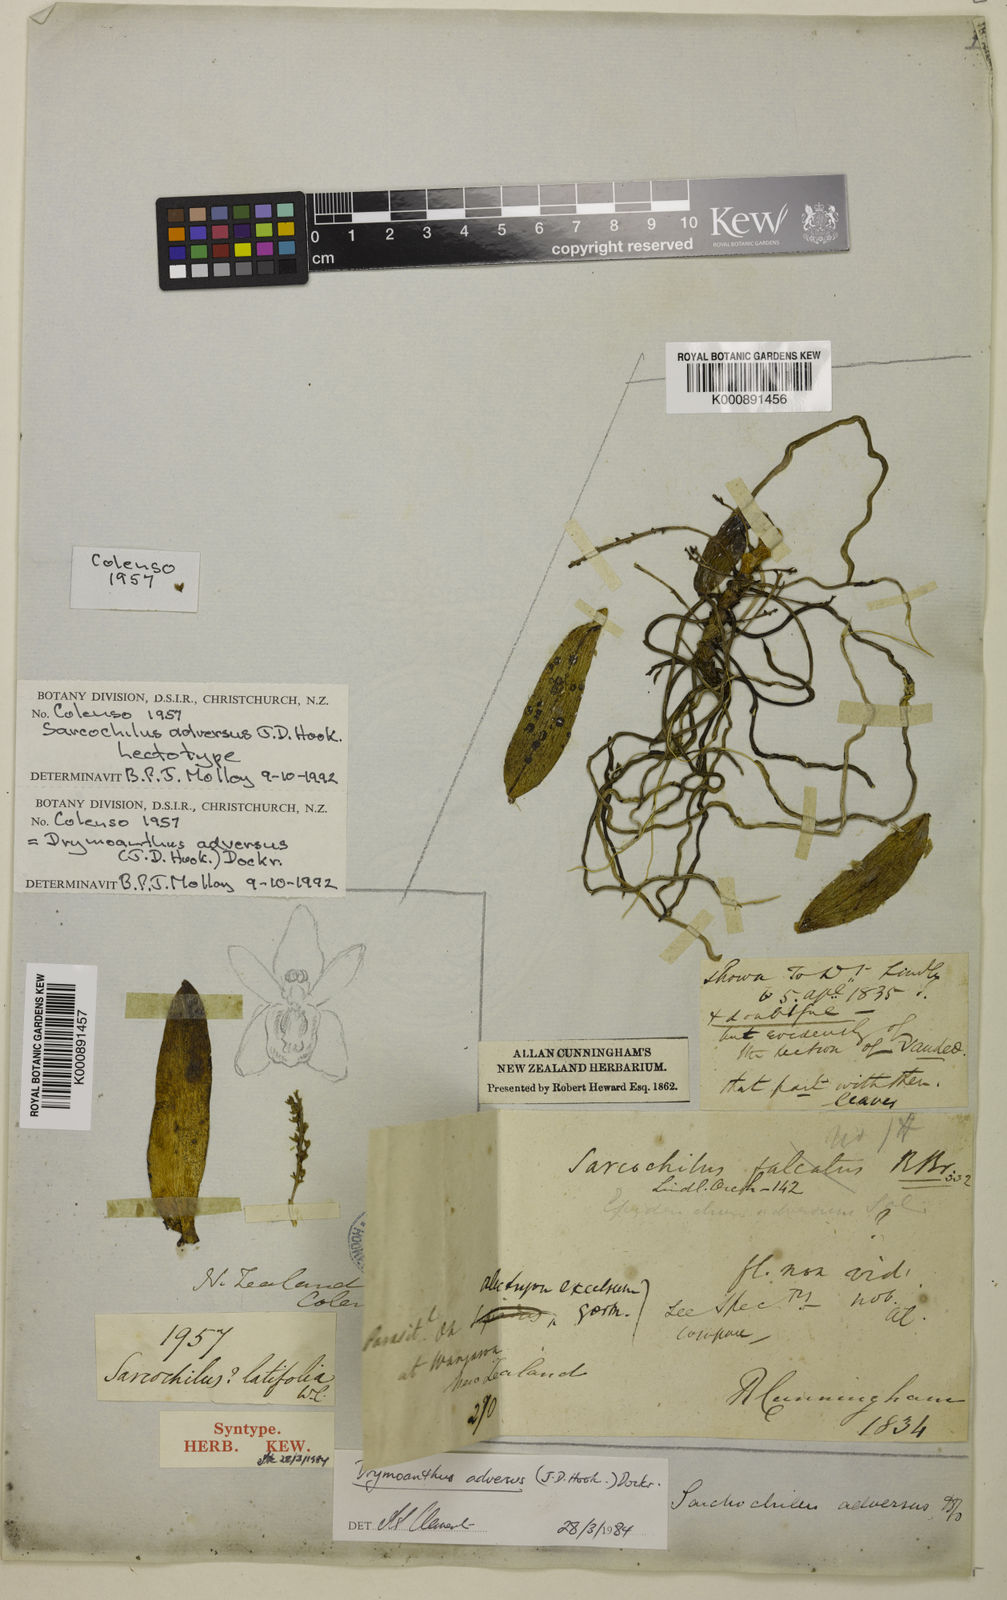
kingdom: Plantae
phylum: Tracheophyta
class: Liliopsida
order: Asparagales
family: Orchidaceae
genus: Drymoanthus
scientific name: Drymoanthus adversus
